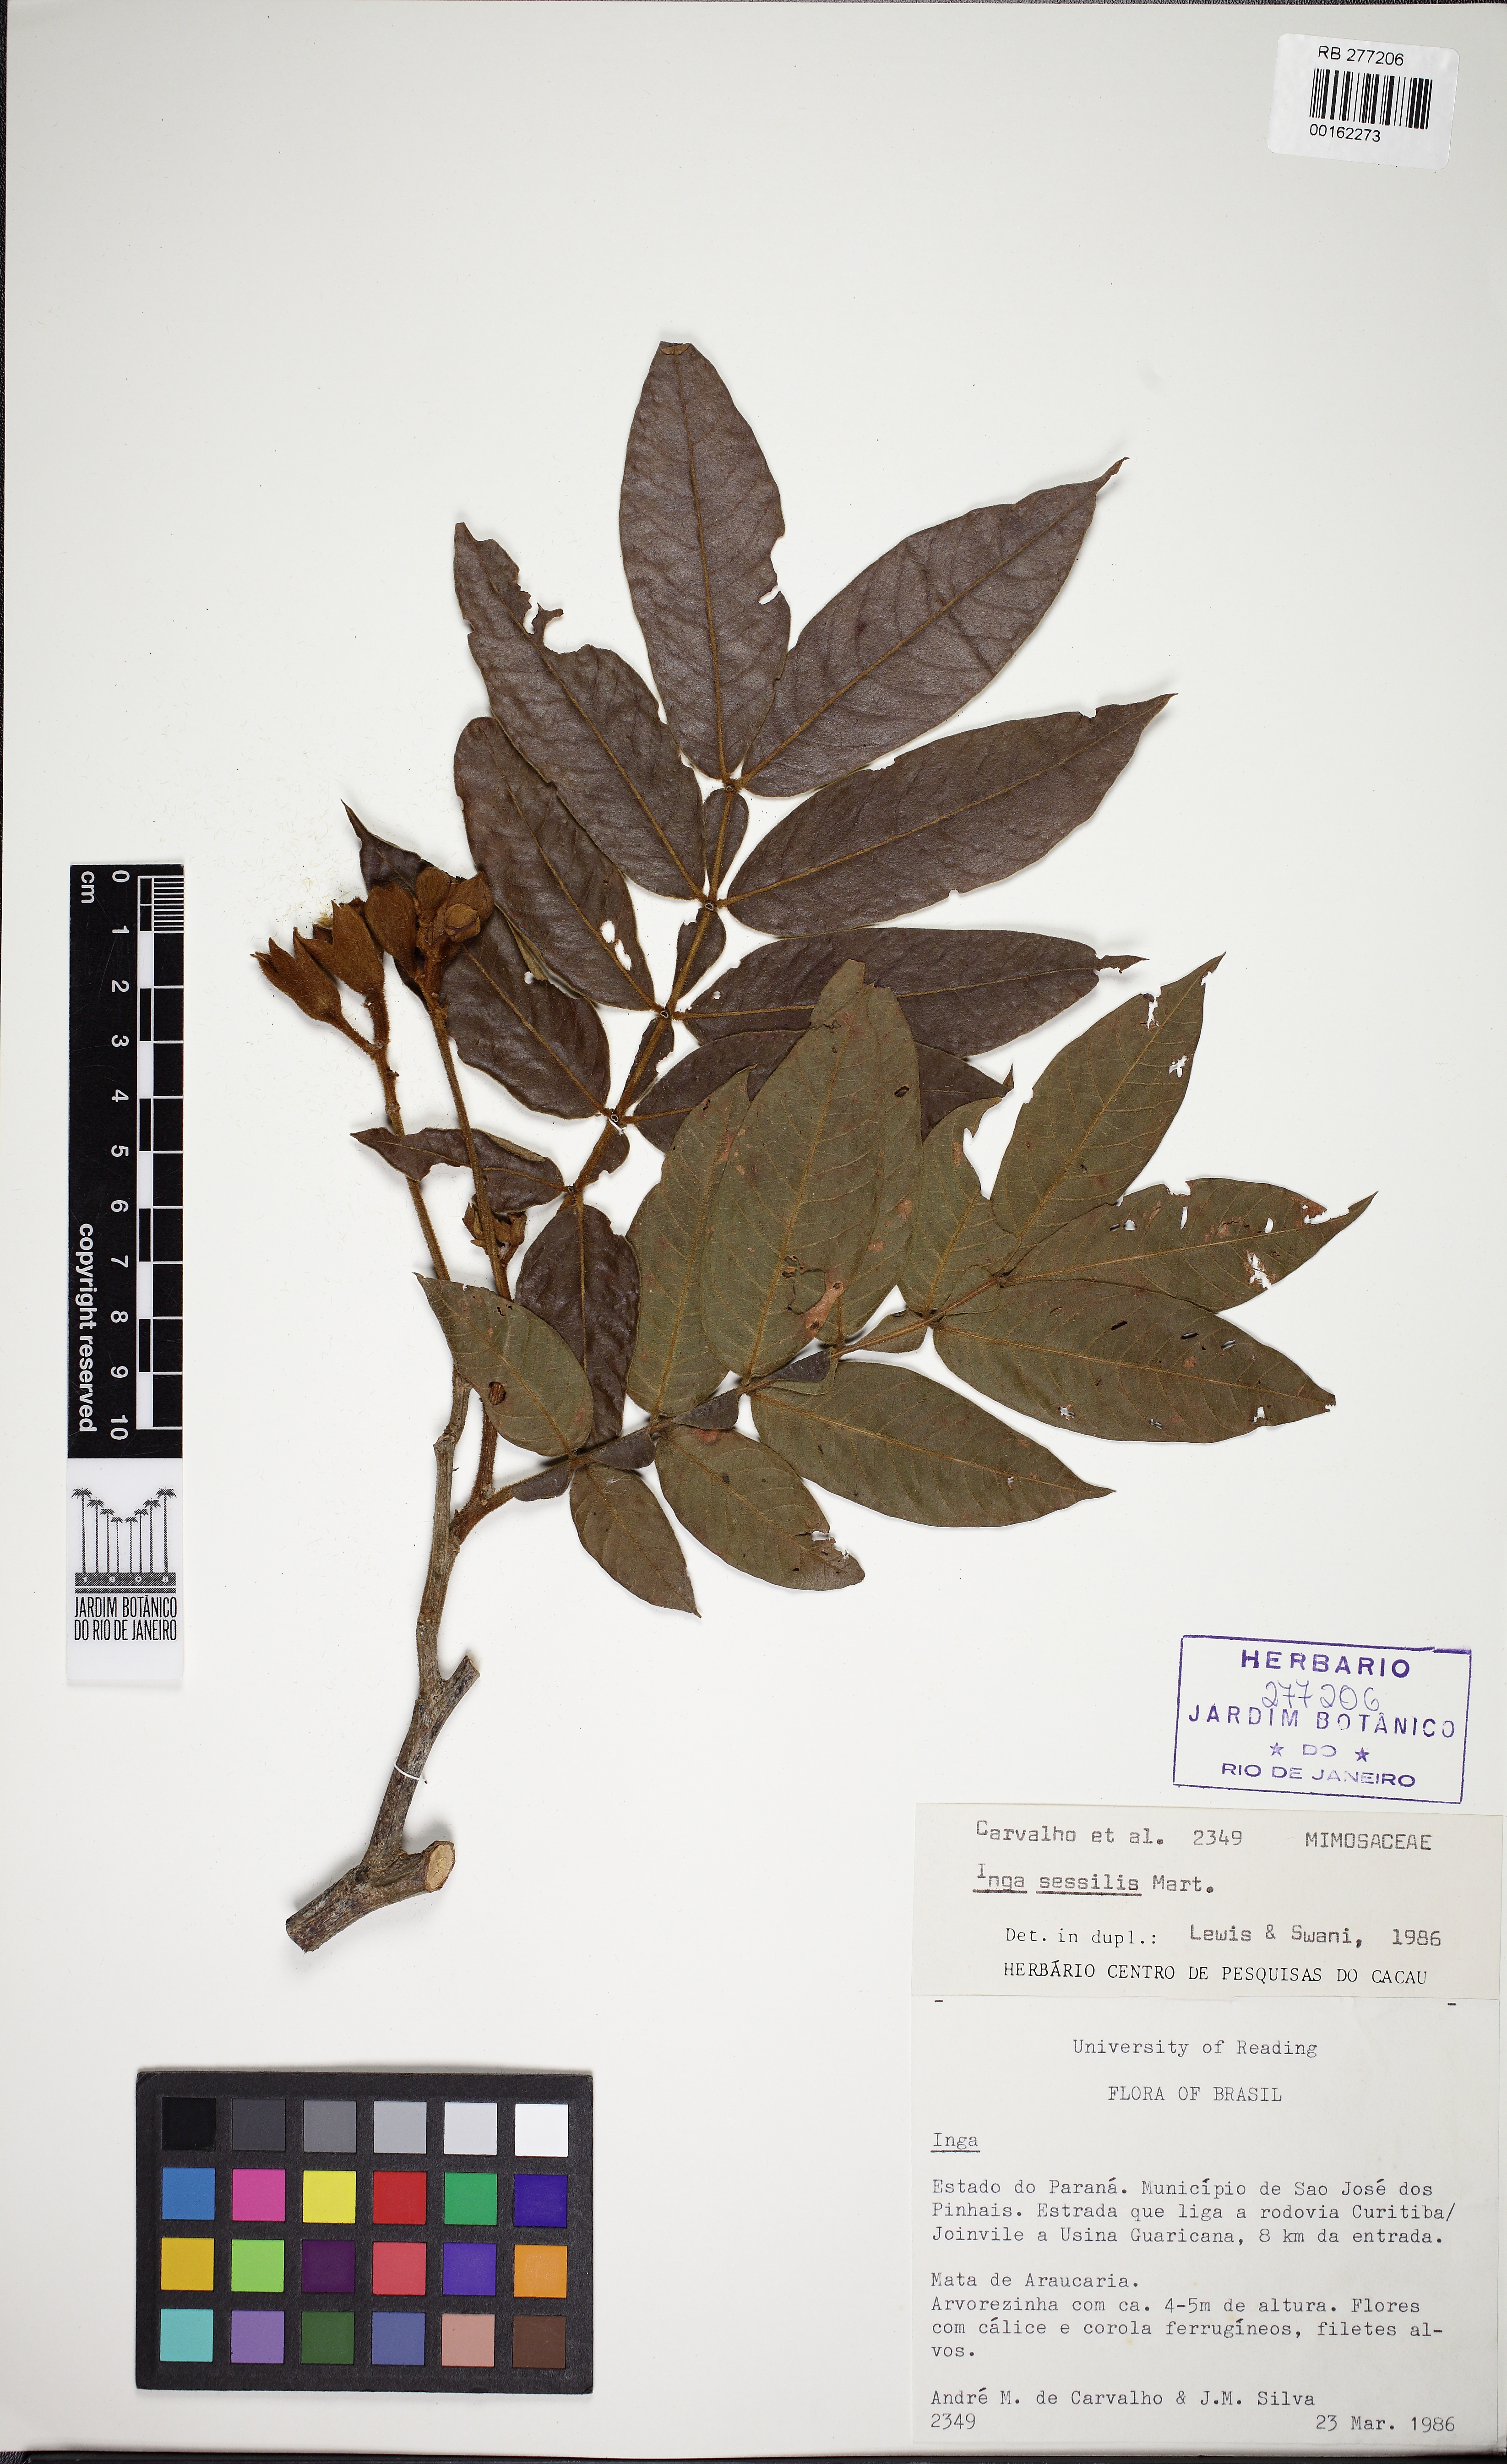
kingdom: Plantae
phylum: Tracheophyta
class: Magnoliopsida
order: Fabales
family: Fabaceae
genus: Inga
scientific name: Inga sessilis
